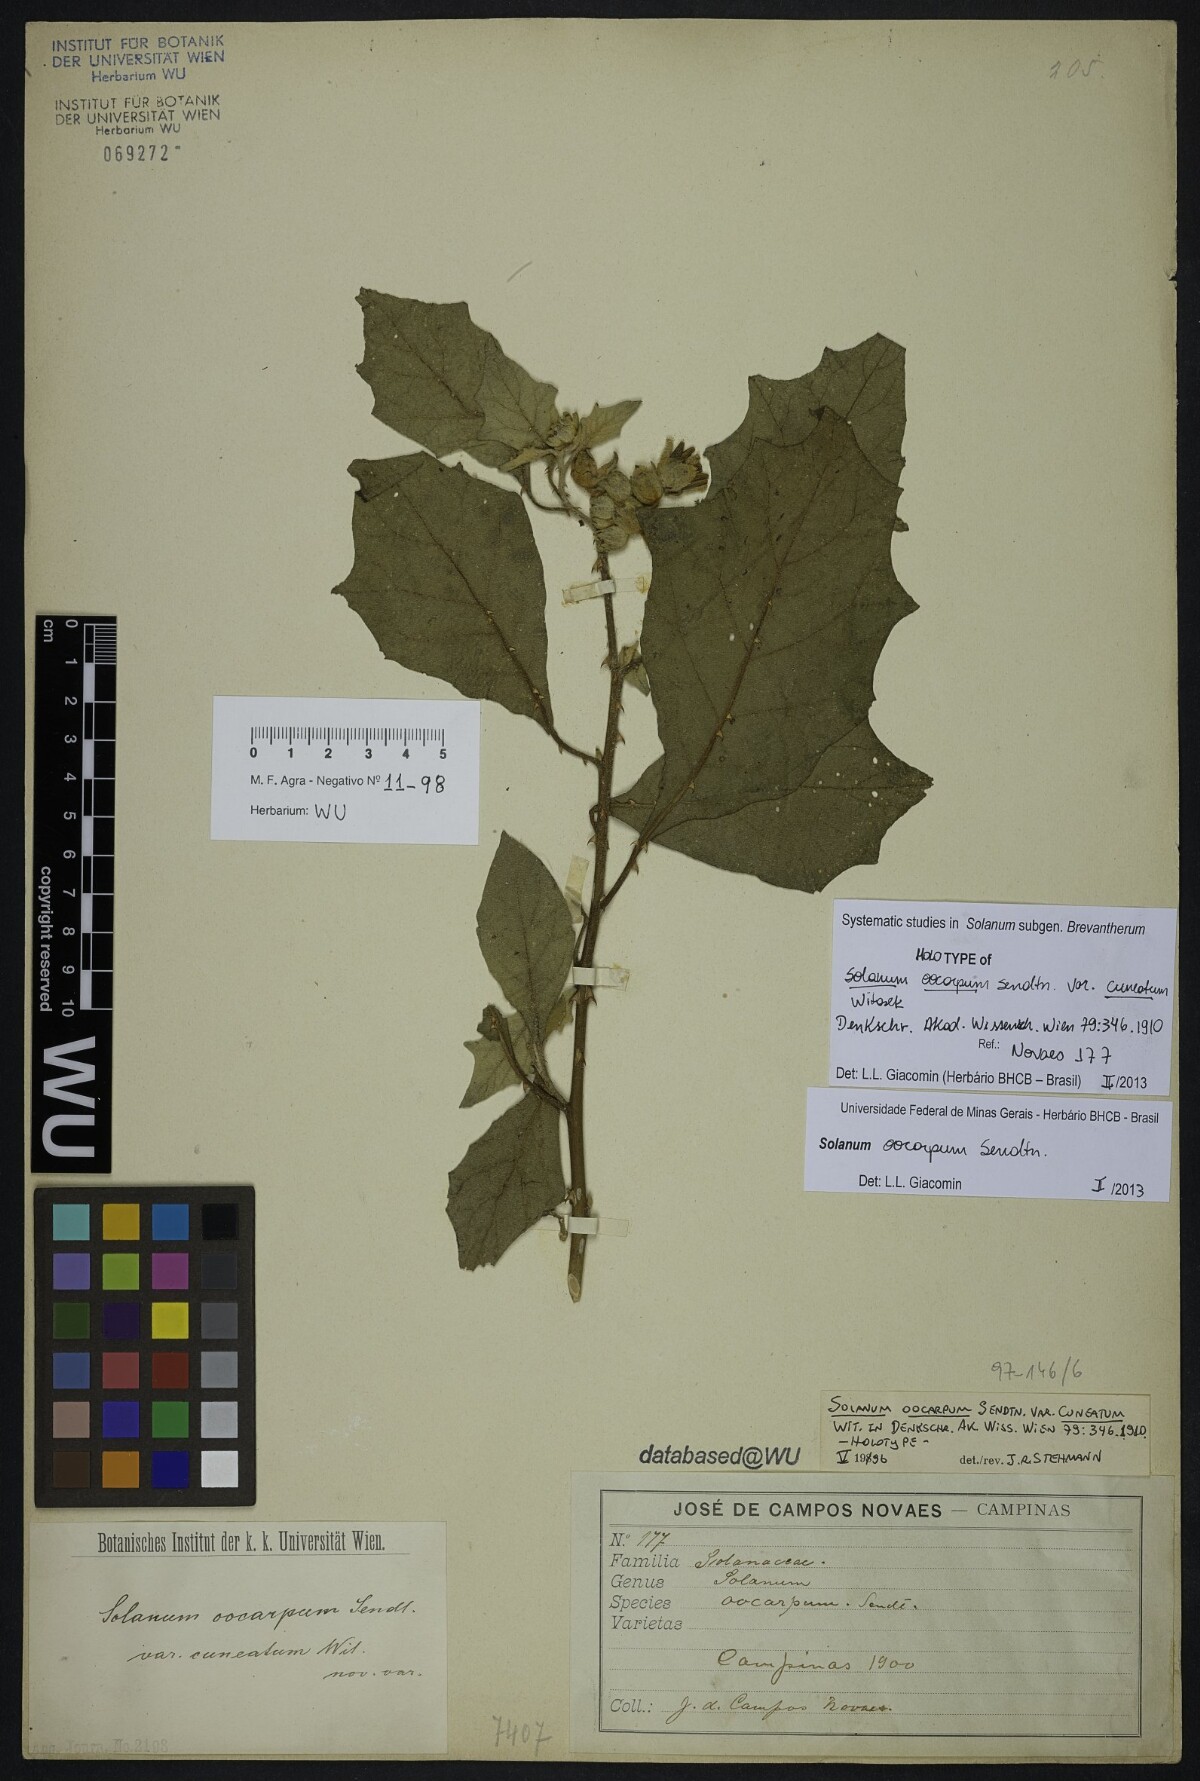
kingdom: Plantae
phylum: Tracheophyta
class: Magnoliopsida
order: Solanales
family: Solanaceae
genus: Solanum
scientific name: Solanum oocarpum
